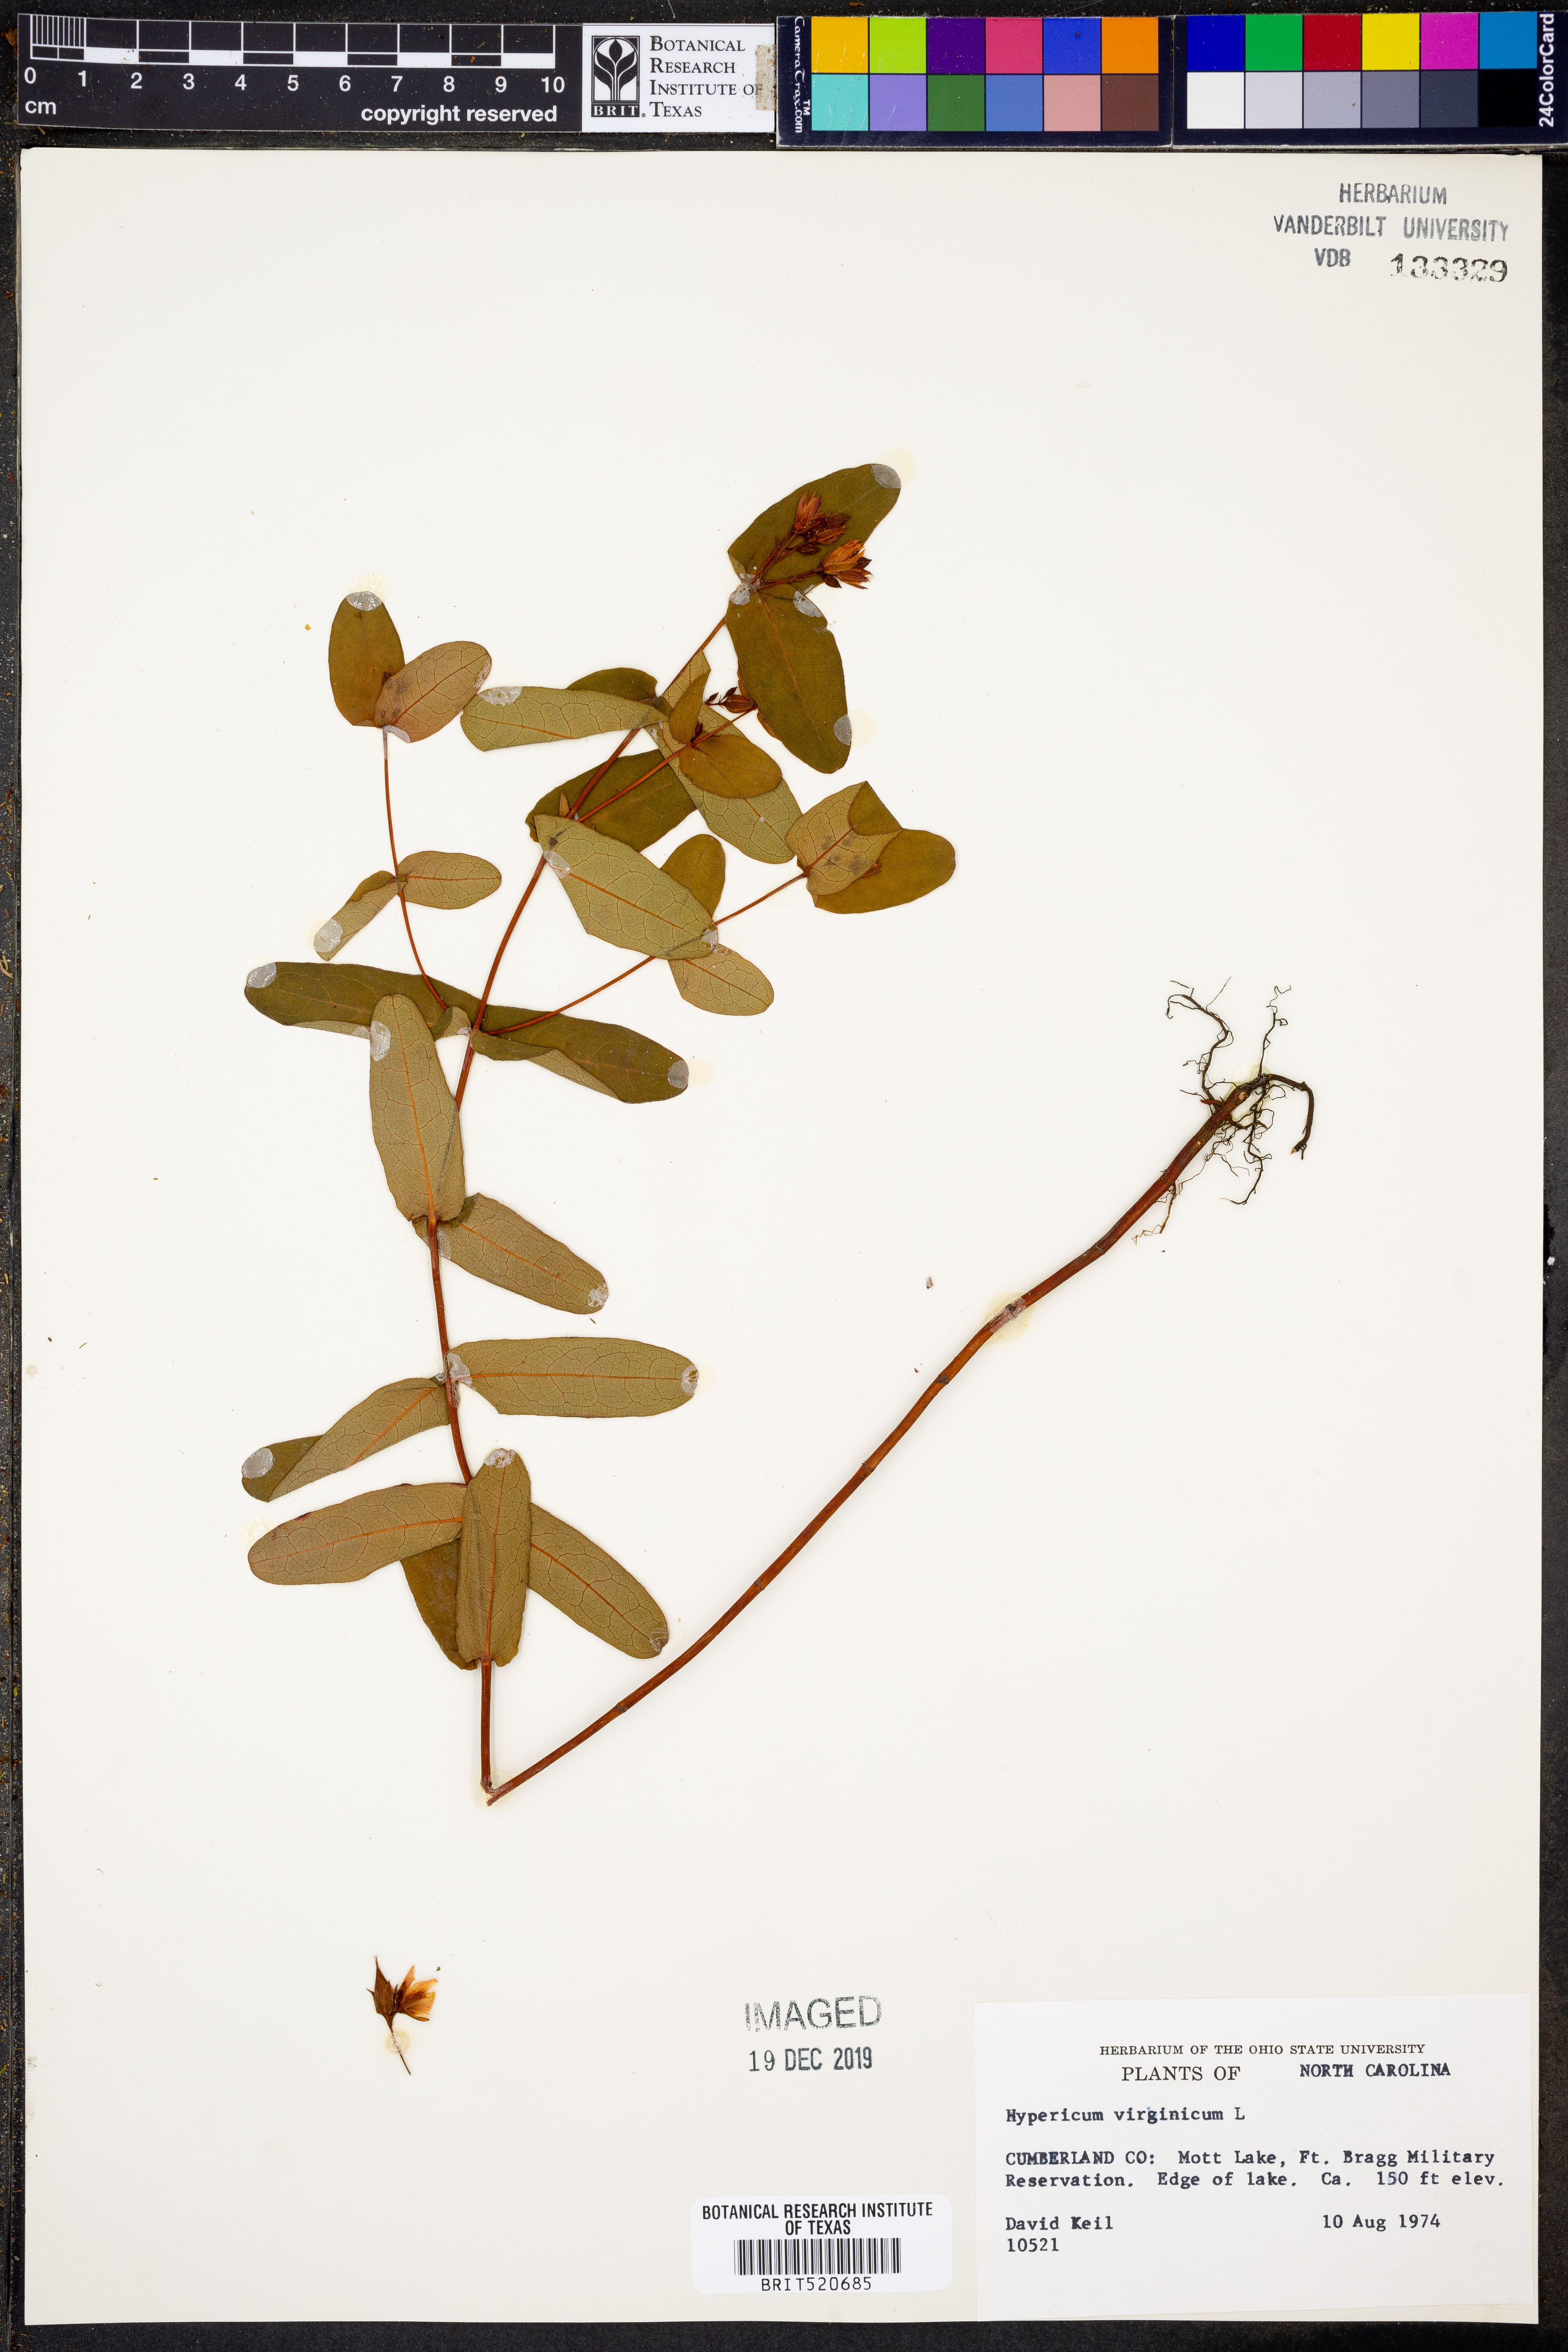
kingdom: Plantae
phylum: Tracheophyta
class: Magnoliopsida
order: Malpighiales
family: Hypericaceae
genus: Triadenum
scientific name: Triadenum virginicum
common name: Marsh st. john's-wort
